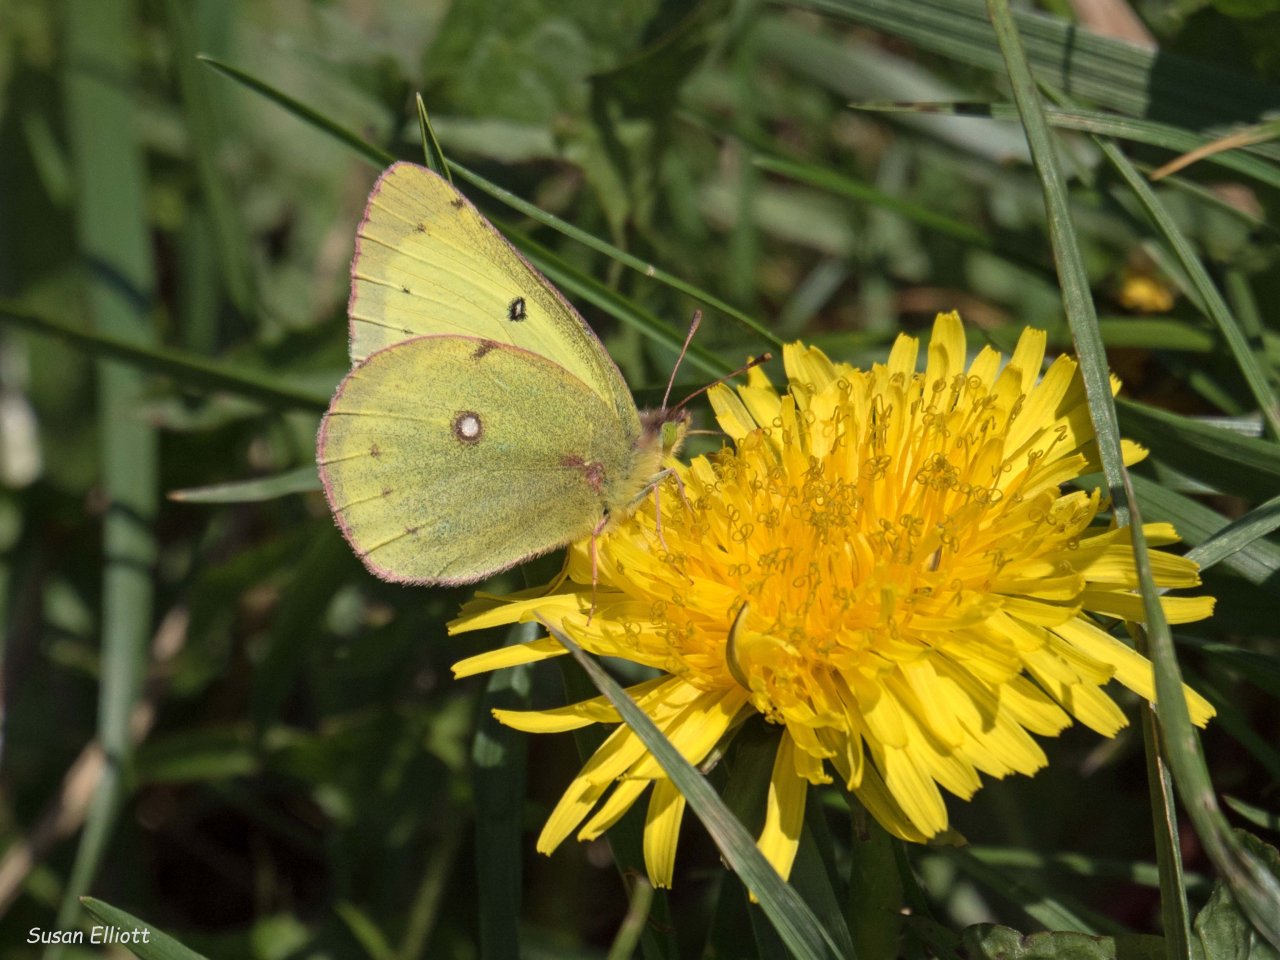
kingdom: Animalia
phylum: Arthropoda
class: Insecta
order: Lepidoptera
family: Pieridae
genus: Colias
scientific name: Colias philodice
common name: Clouded Sulphur
